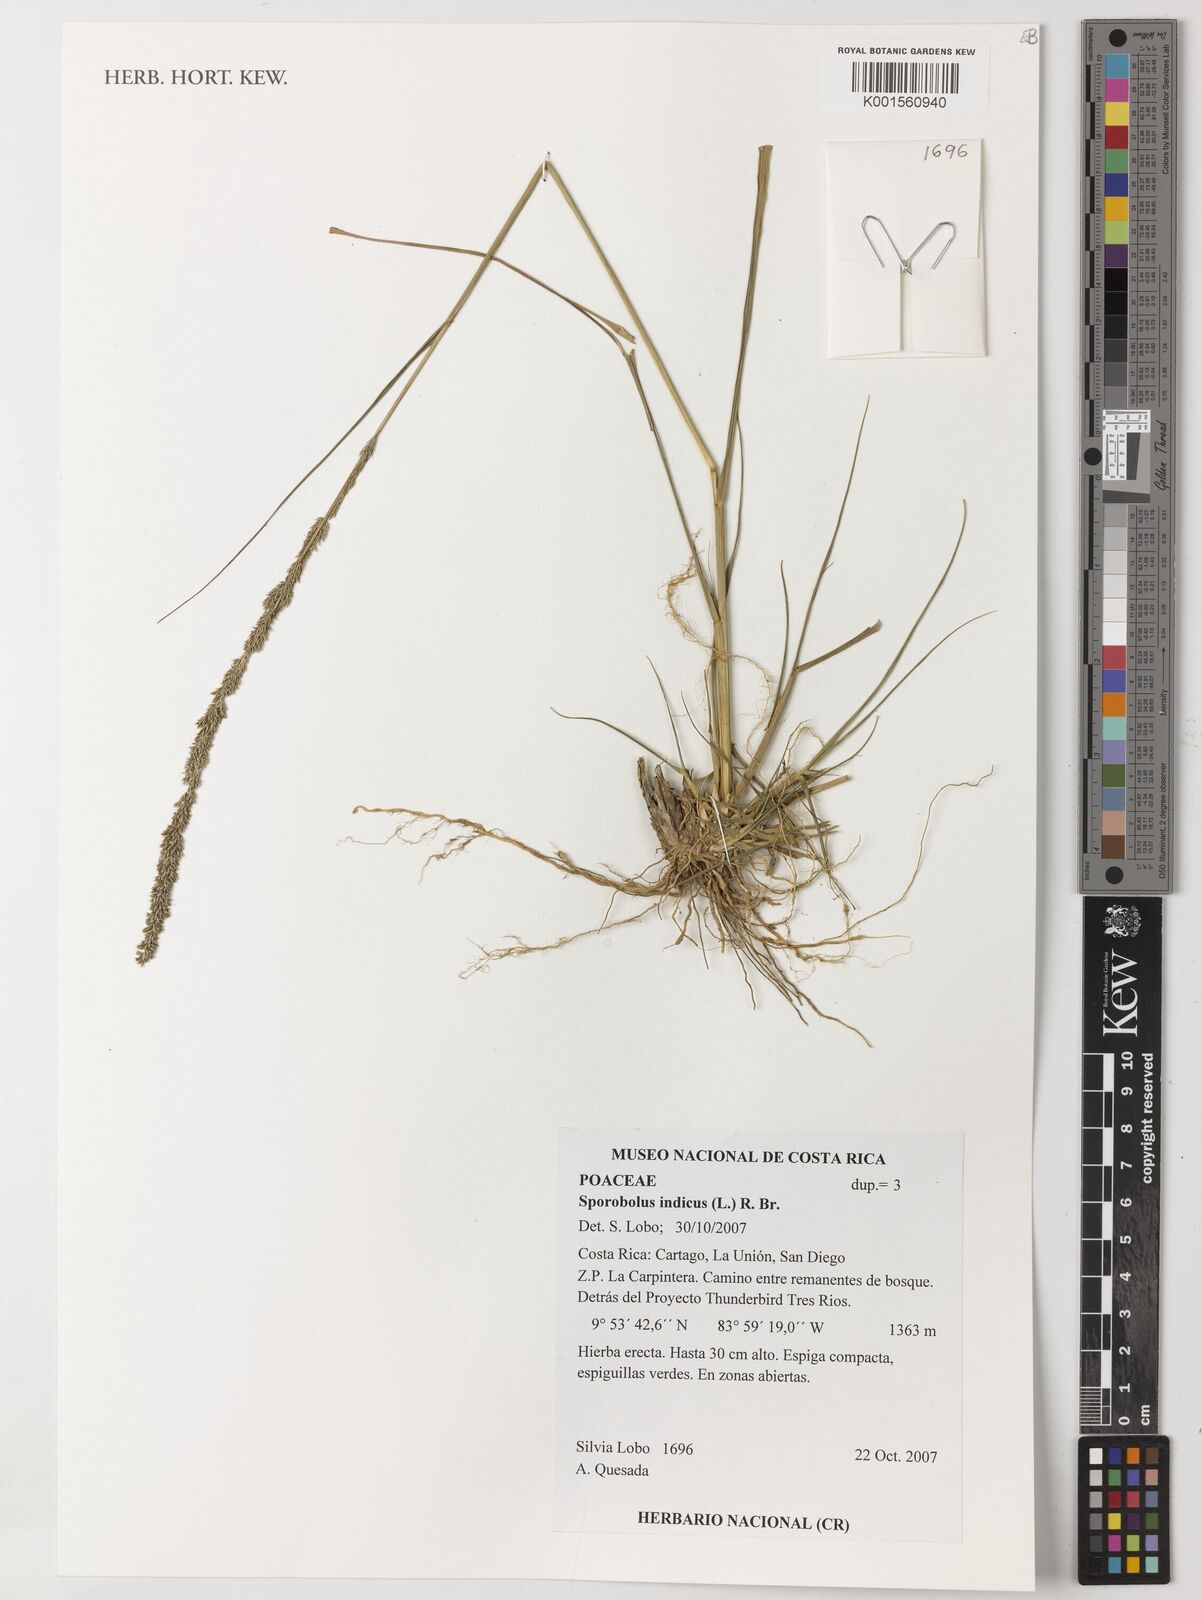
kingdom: Plantae
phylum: Tracheophyta
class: Liliopsida
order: Poales
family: Poaceae
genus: Sporobolus
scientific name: Sporobolus indicus
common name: Smut grass
